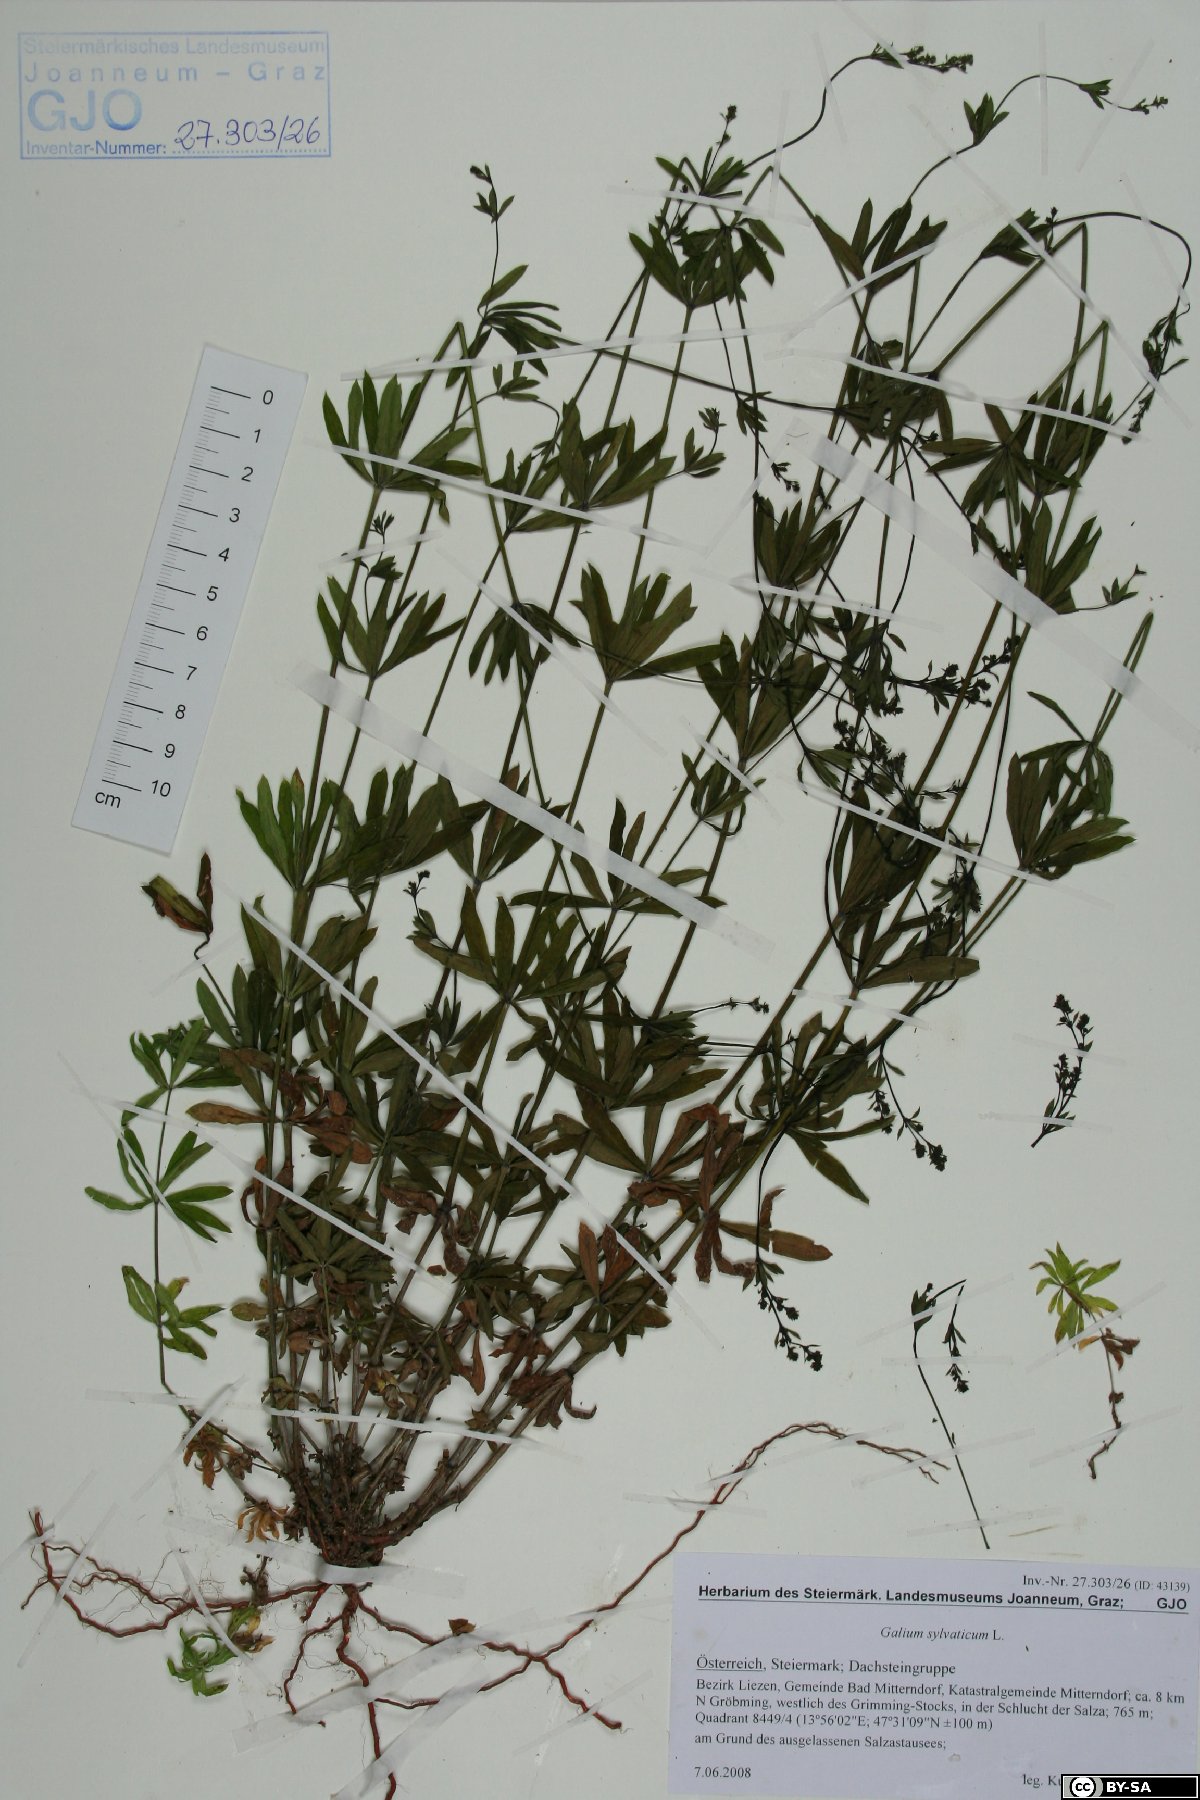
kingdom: Plantae
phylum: Tracheophyta
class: Magnoliopsida
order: Gentianales
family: Rubiaceae
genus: Galium
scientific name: Galium sylvaticum
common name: Wood bedstraw
